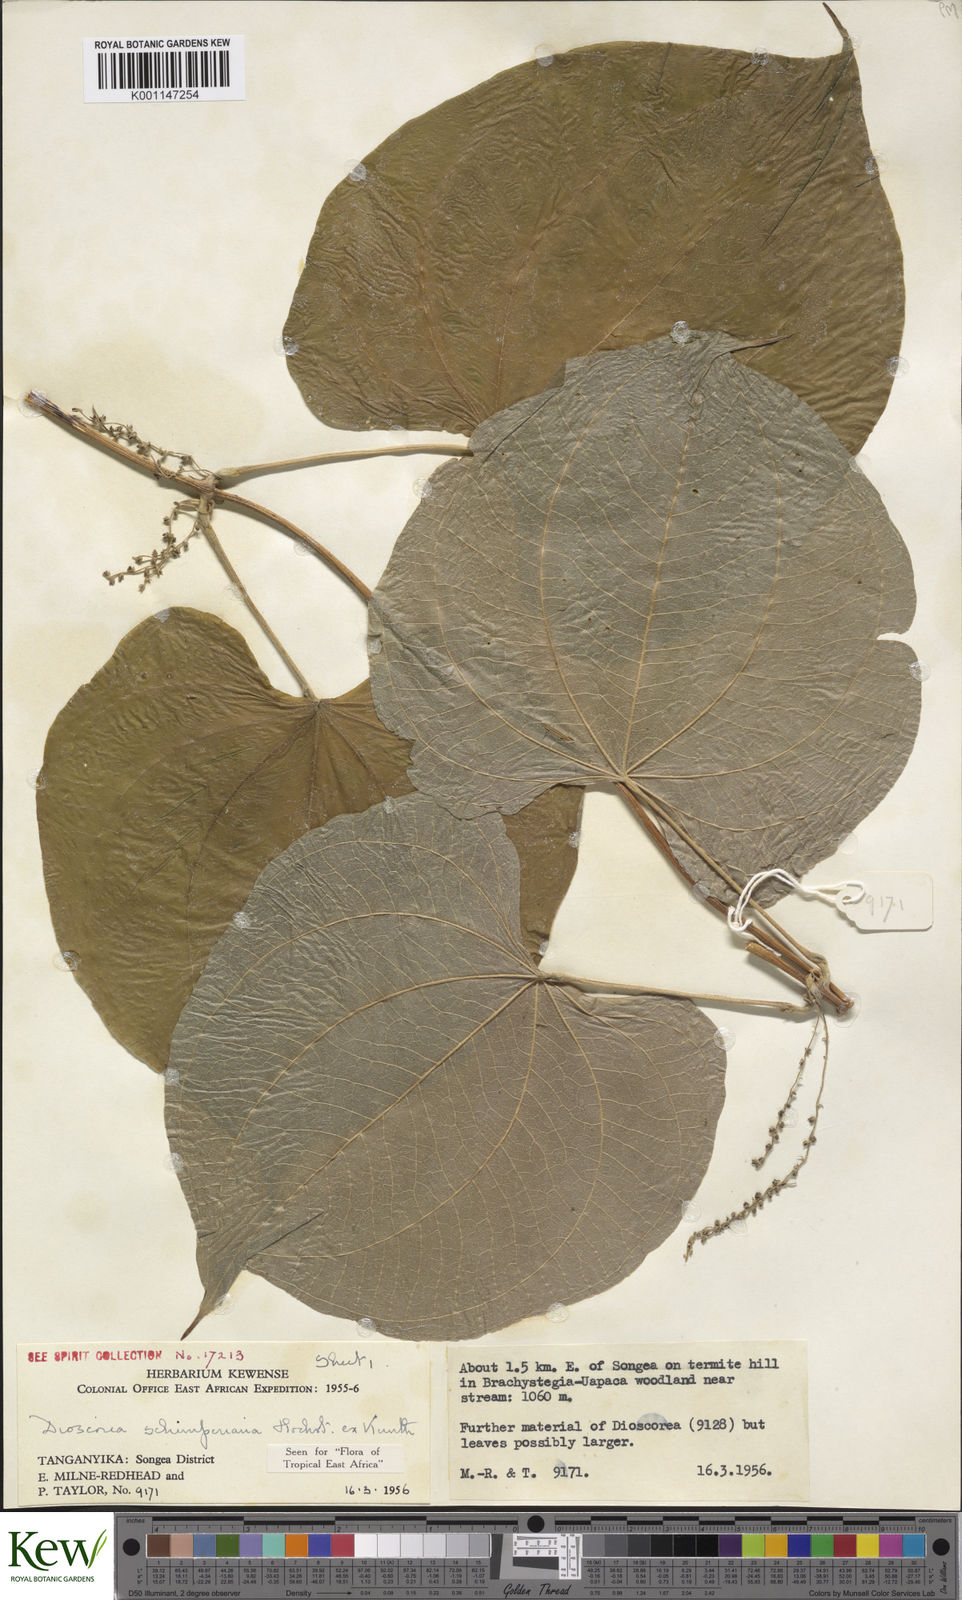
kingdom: Plantae
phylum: Tracheophyta
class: Liliopsida
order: Dioscoreales
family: Dioscoreaceae
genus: Dioscorea
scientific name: Dioscorea schimperiana
